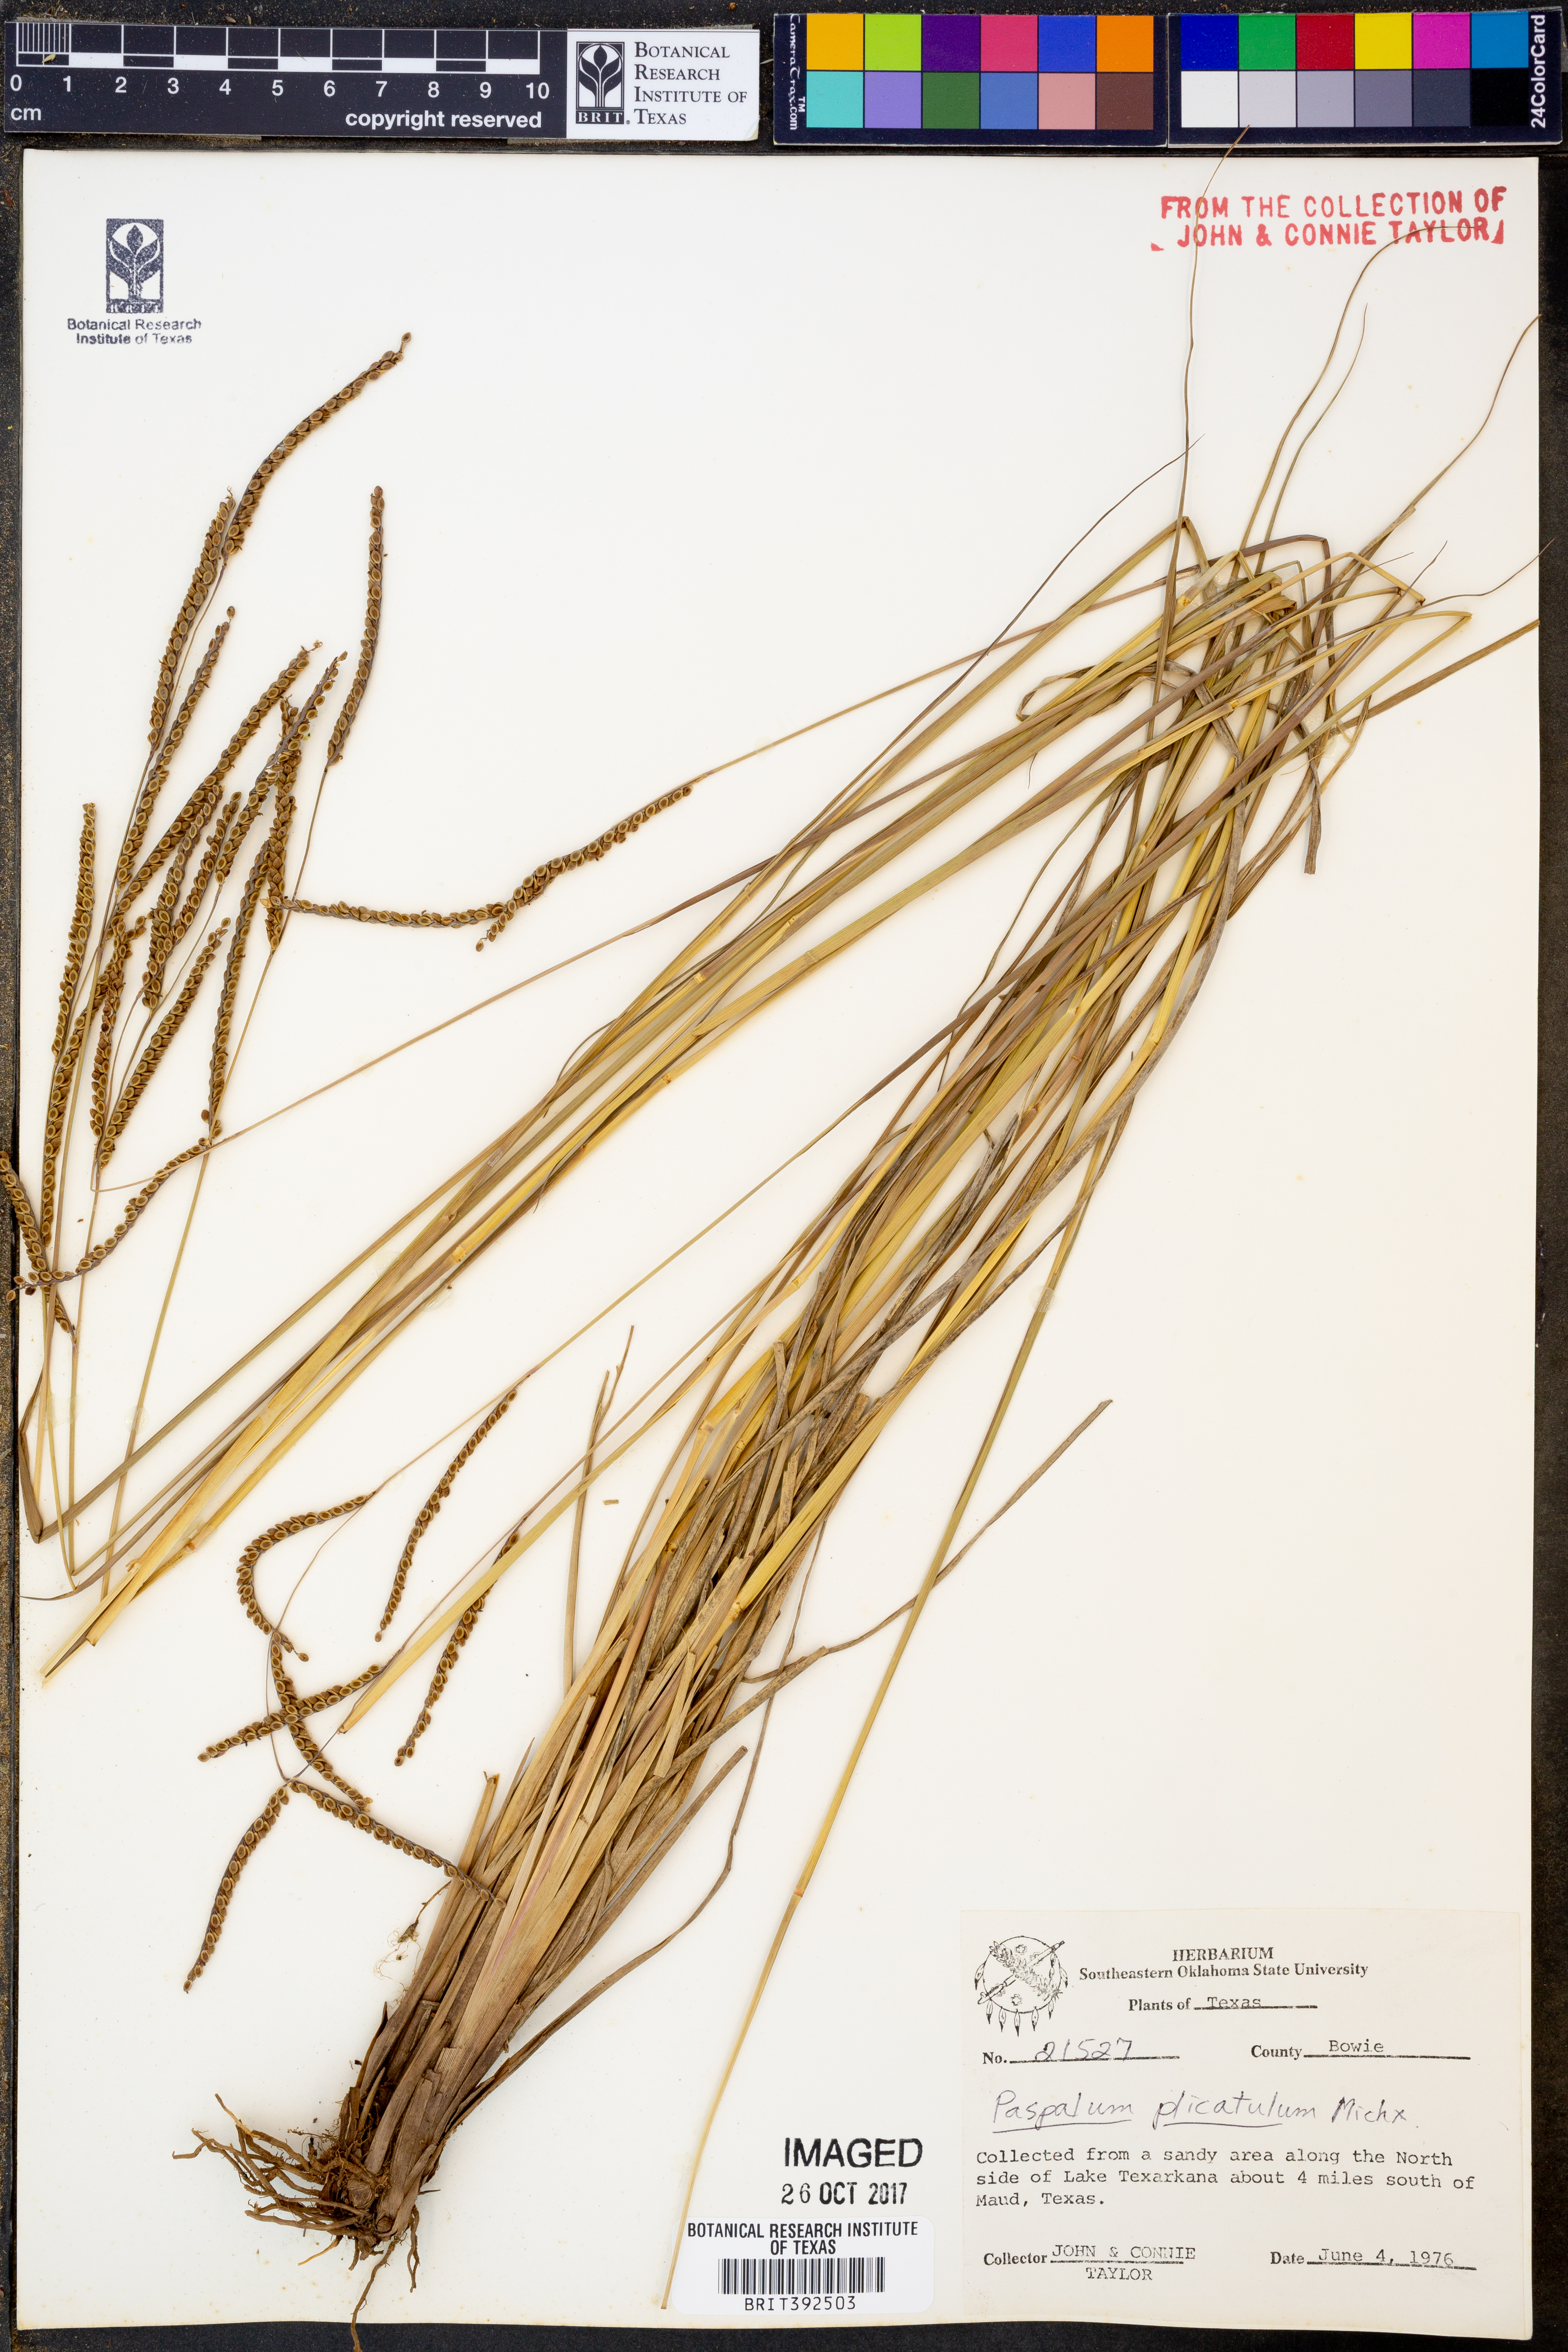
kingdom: Plantae
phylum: Tracheophyta
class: Liliopsida
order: Poales
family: Poaceae
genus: Paspalum
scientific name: Paspalum plicatulum
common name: Top paspalum
